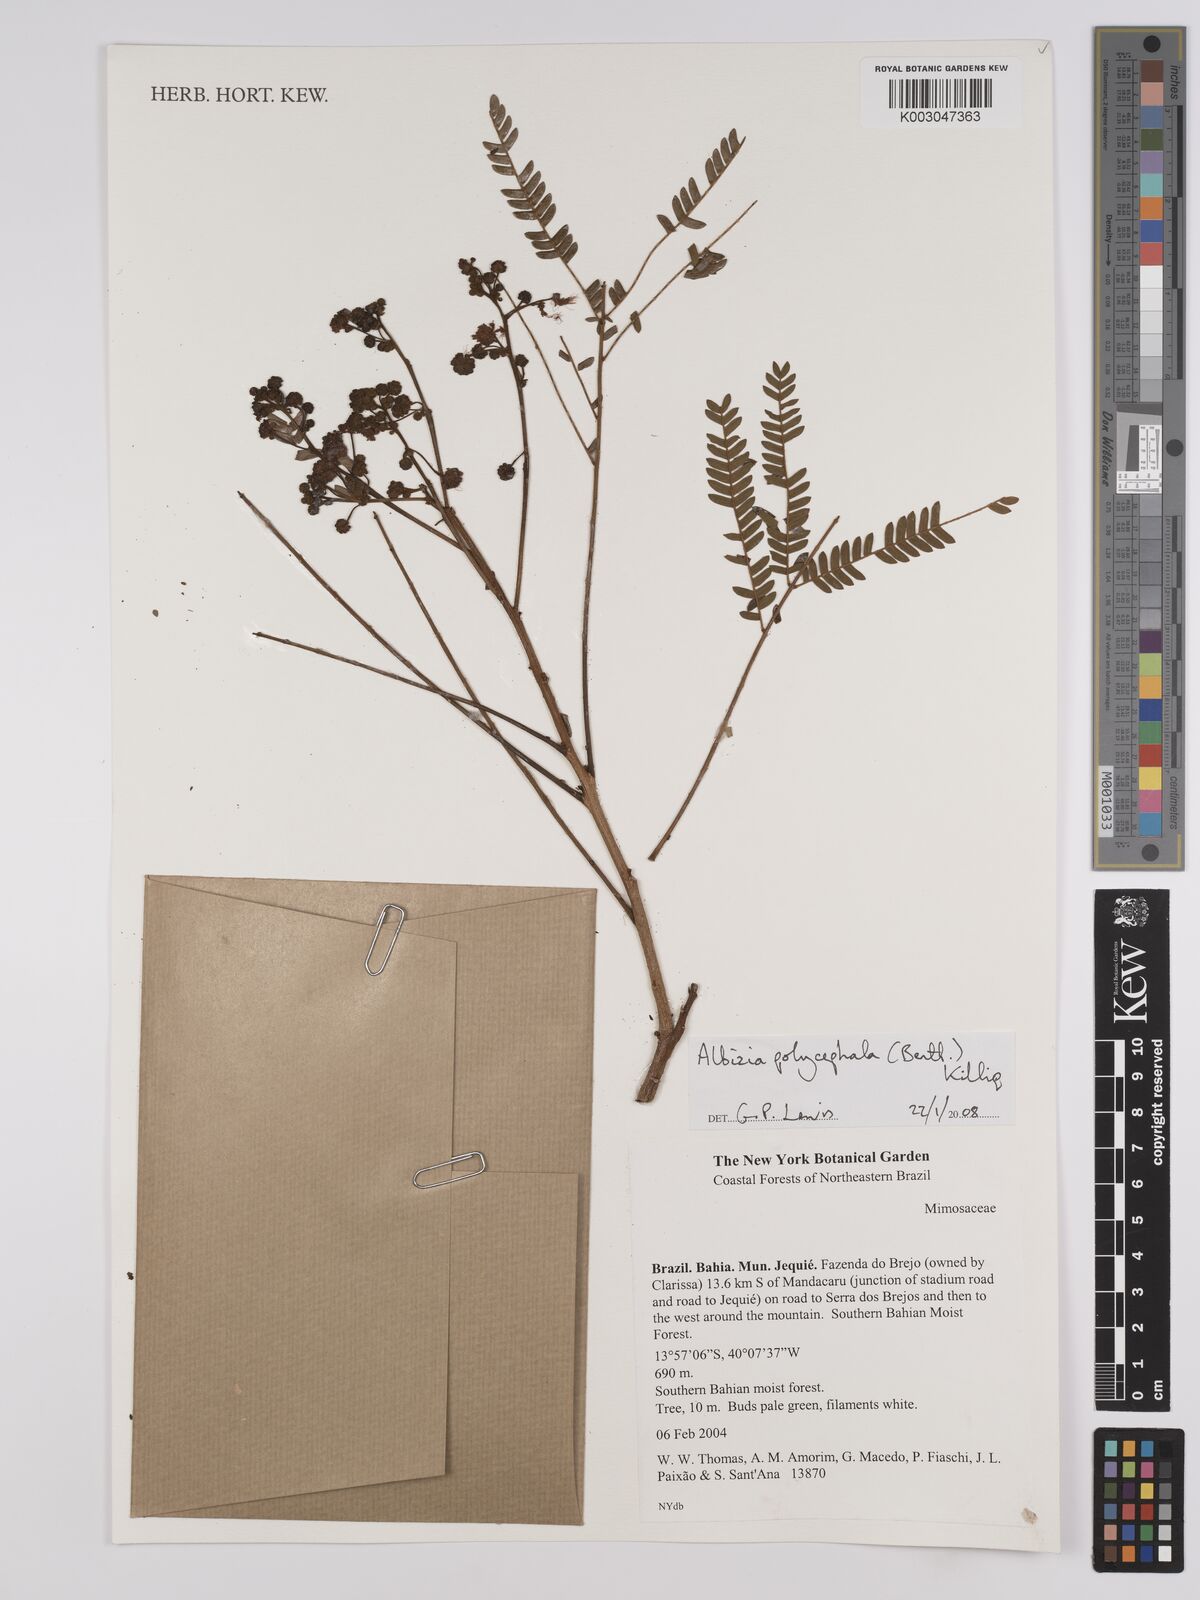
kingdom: Plantae
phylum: Tracheophyta
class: Magnoliopsida
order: Fabales
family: Fabaceae
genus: Albizia
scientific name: Albizia polycephala
